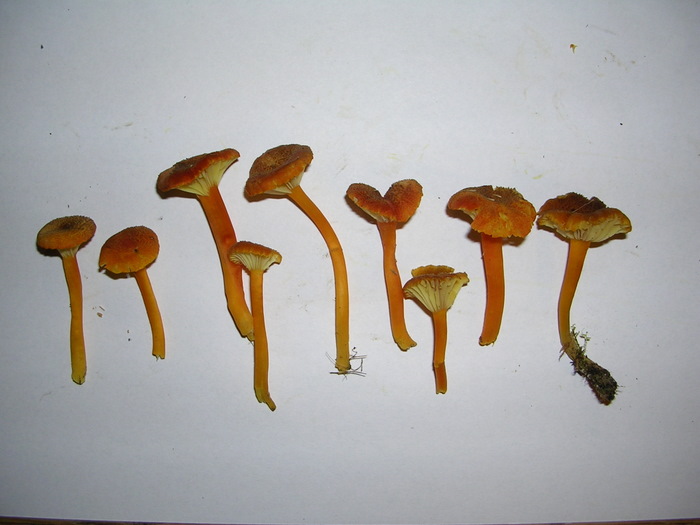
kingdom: Fungi
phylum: Basidiomycota
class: Agaricomycetes
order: Agaricales
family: Hygrophoraceae
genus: Hygrocybe
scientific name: Hygrocybe turunda
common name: sortskællet vokshat
